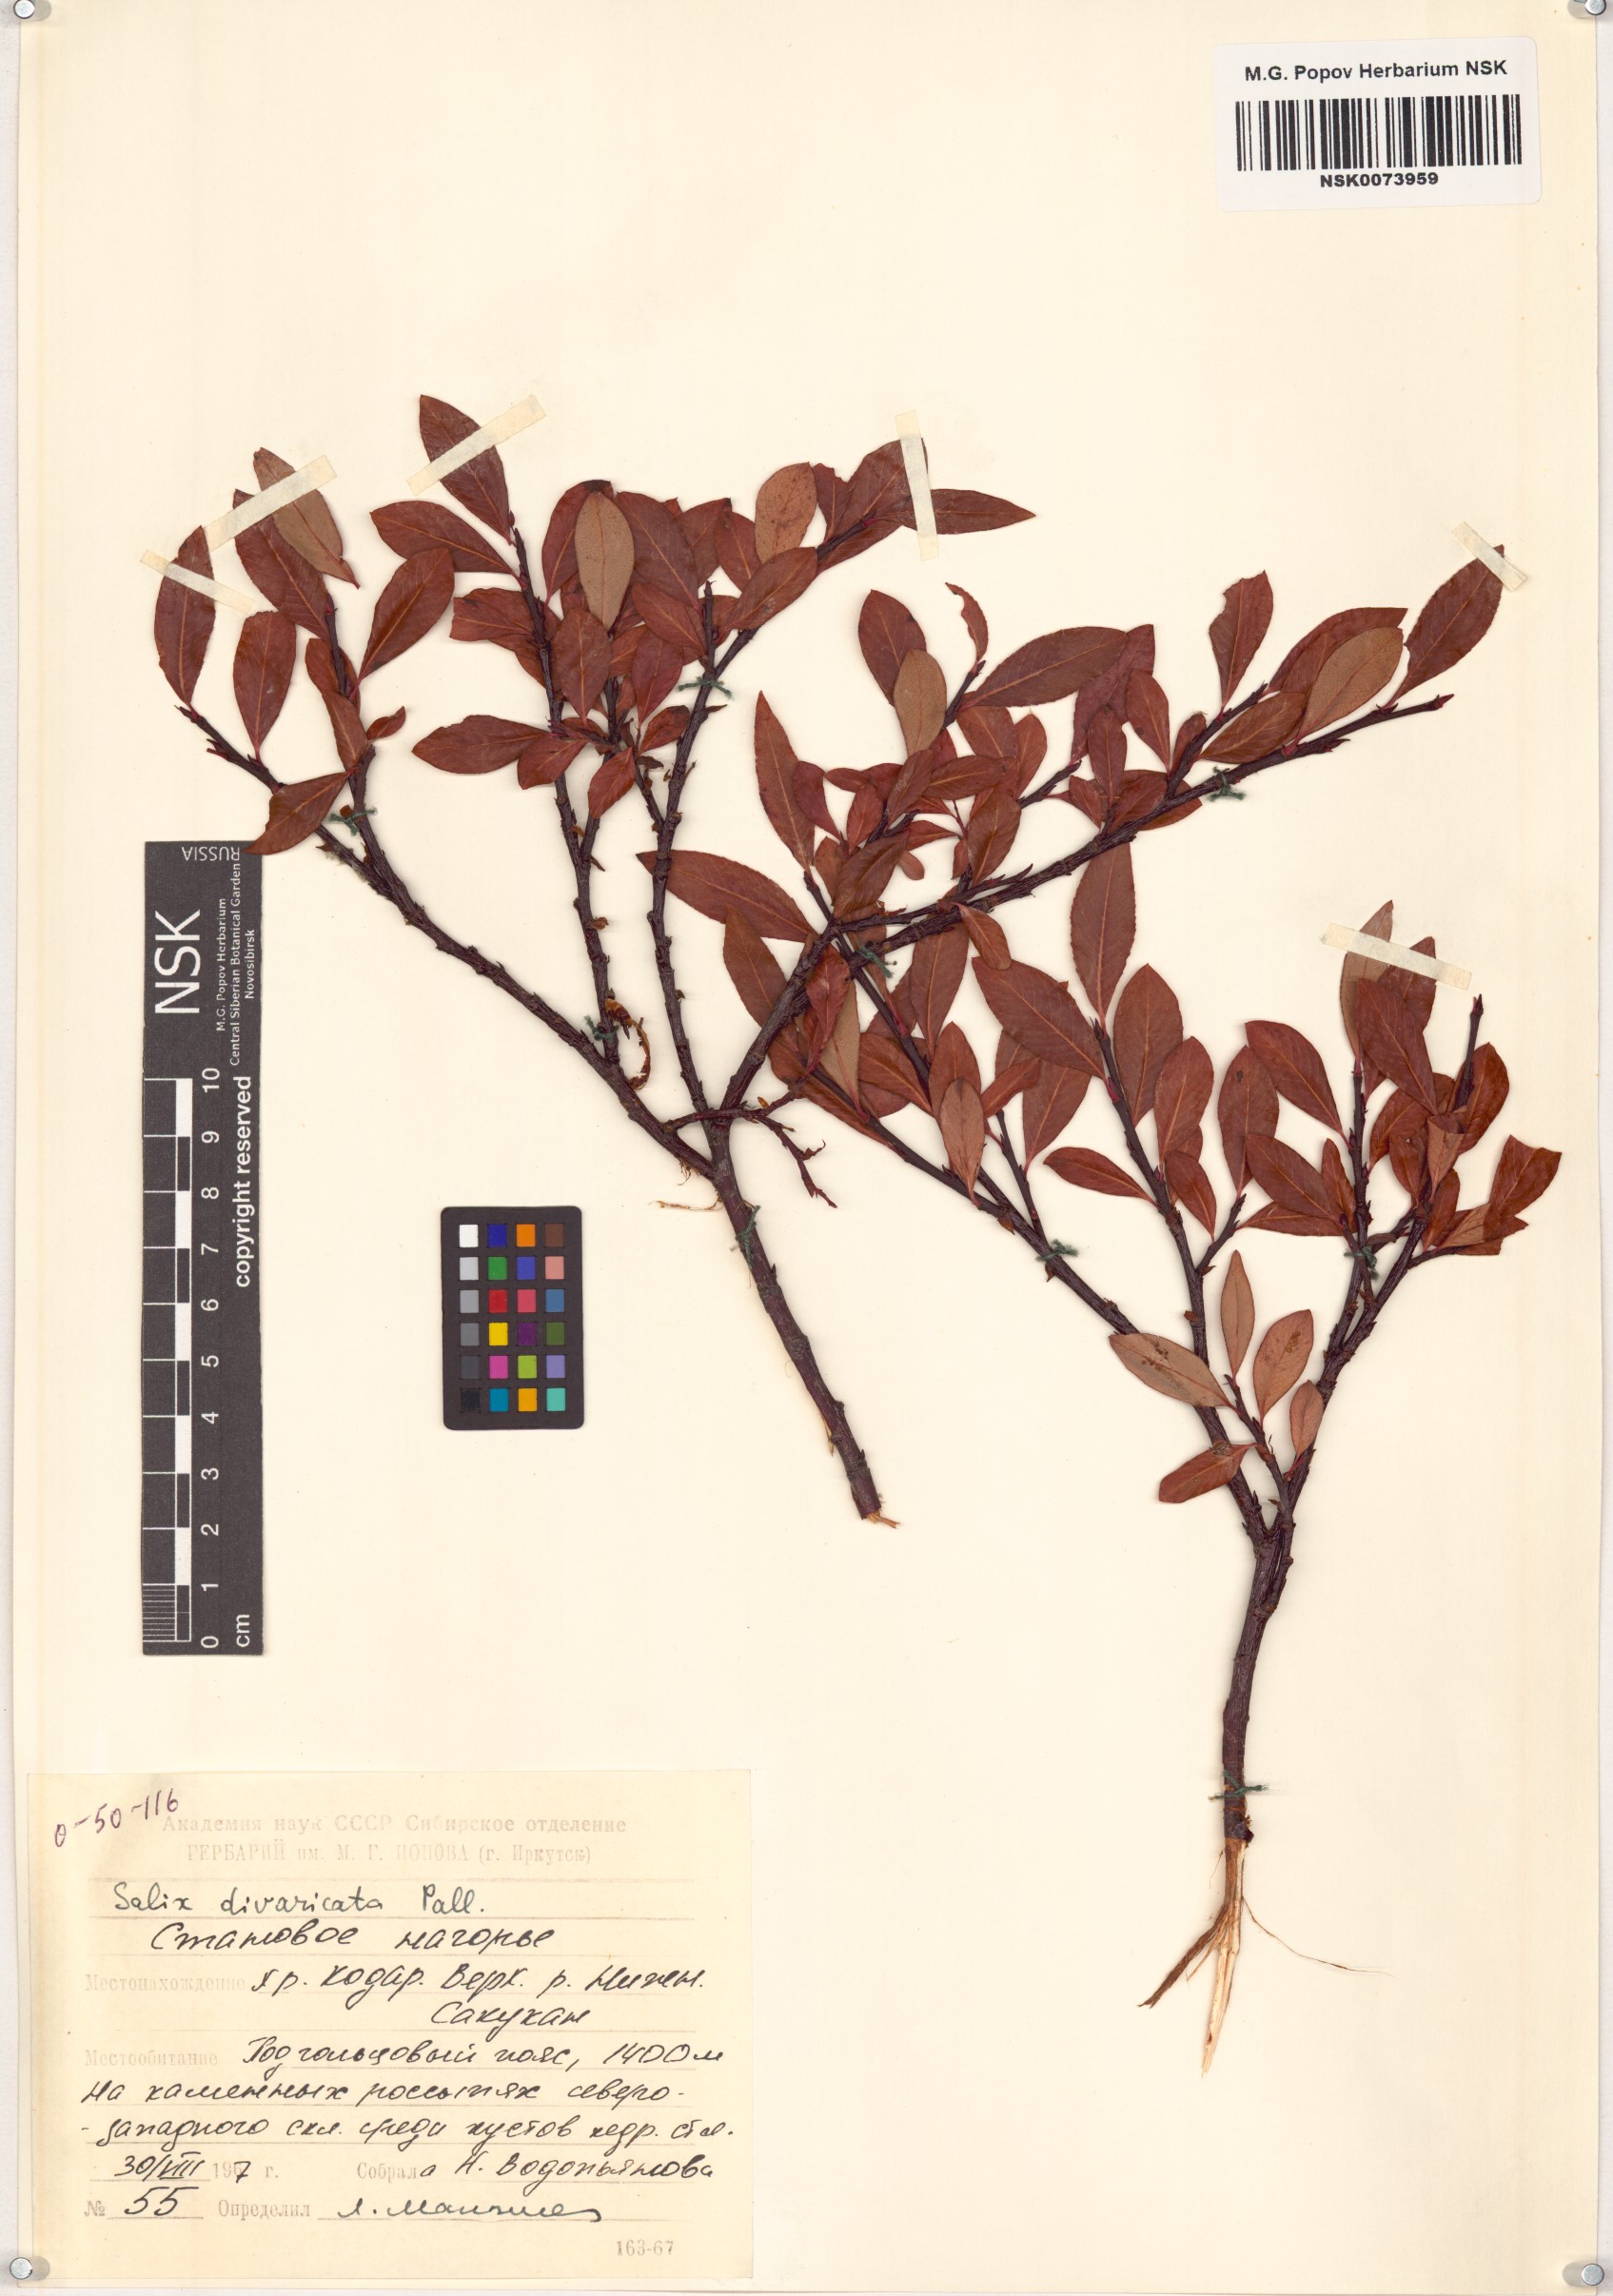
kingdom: Plantae
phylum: Tracheophyta
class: Magnoliopsida
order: Malpighiales
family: Salicaceae
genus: Salix
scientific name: Salix divaricata
